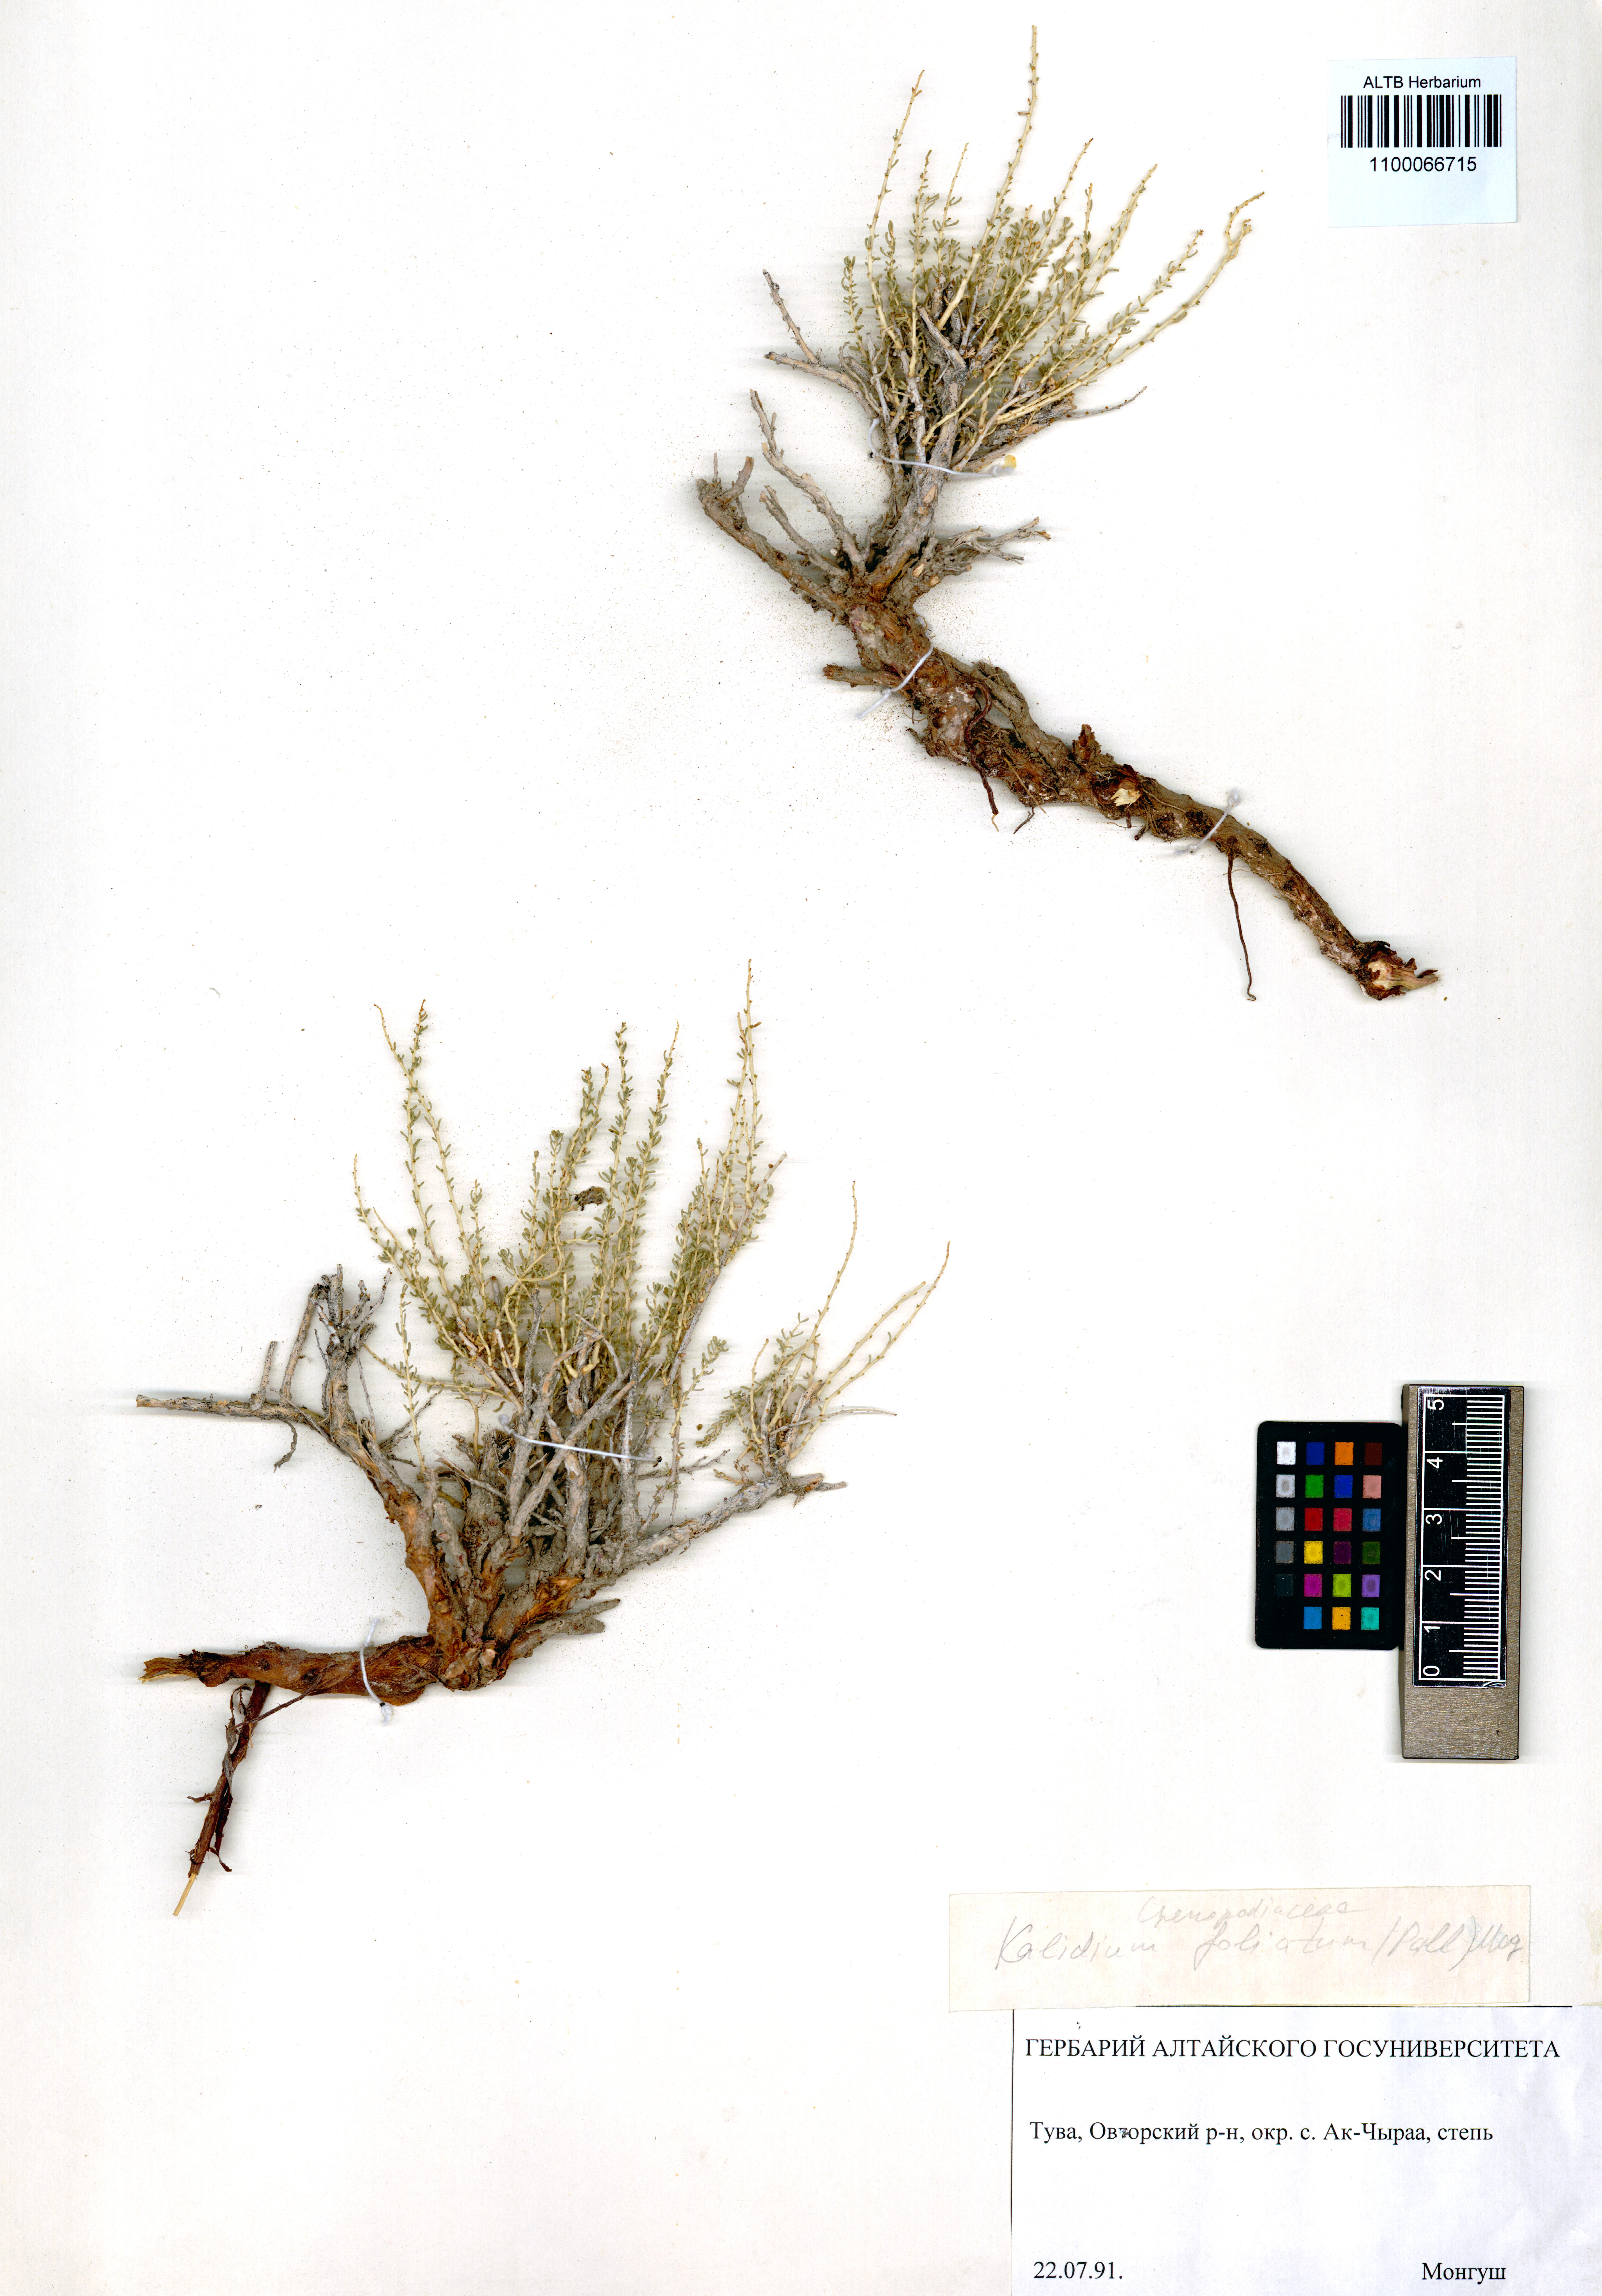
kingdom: Plantae
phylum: Tracheophyta
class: Magnoliopsida
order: Caryophyllales
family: Amaranthaceae
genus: Kalidium
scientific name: Kalidium foliatum
